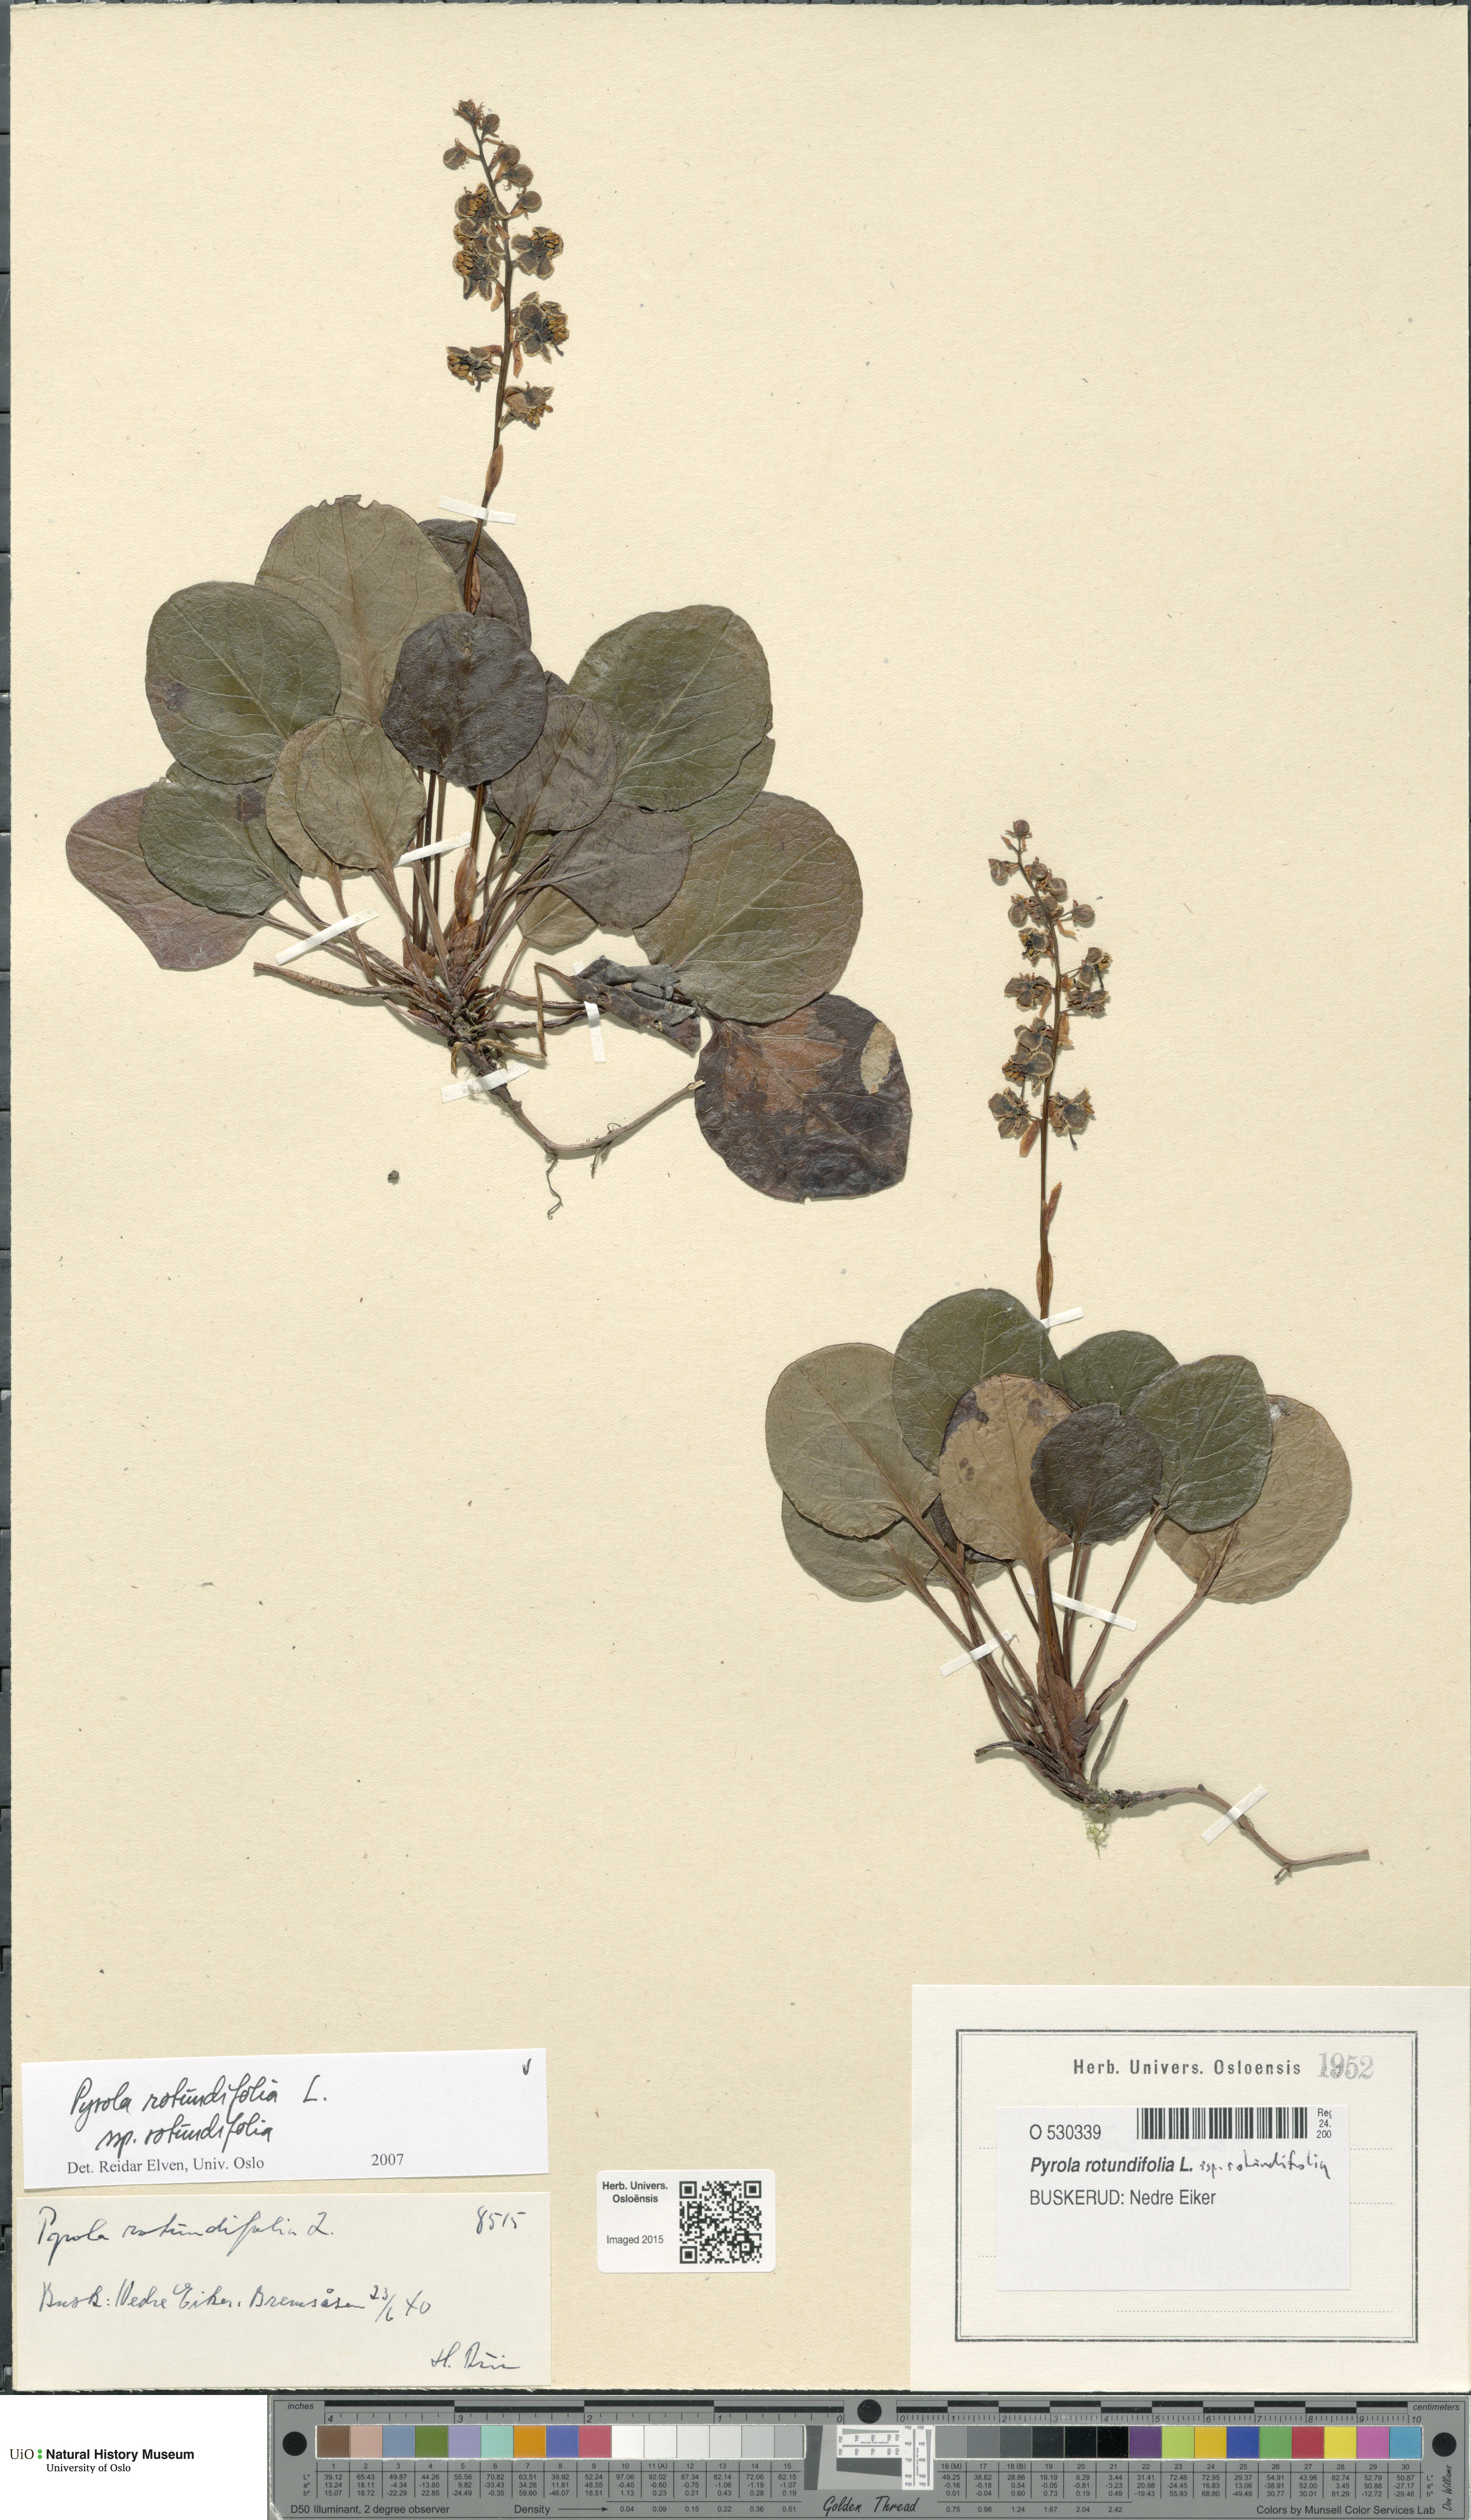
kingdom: Plantae
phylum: Tracheophyta
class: Magnoliopsida
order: Ericales
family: Ericaceae
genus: Pyrola
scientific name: Pyrola rotundifolia
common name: Round-leaved wintergreen
